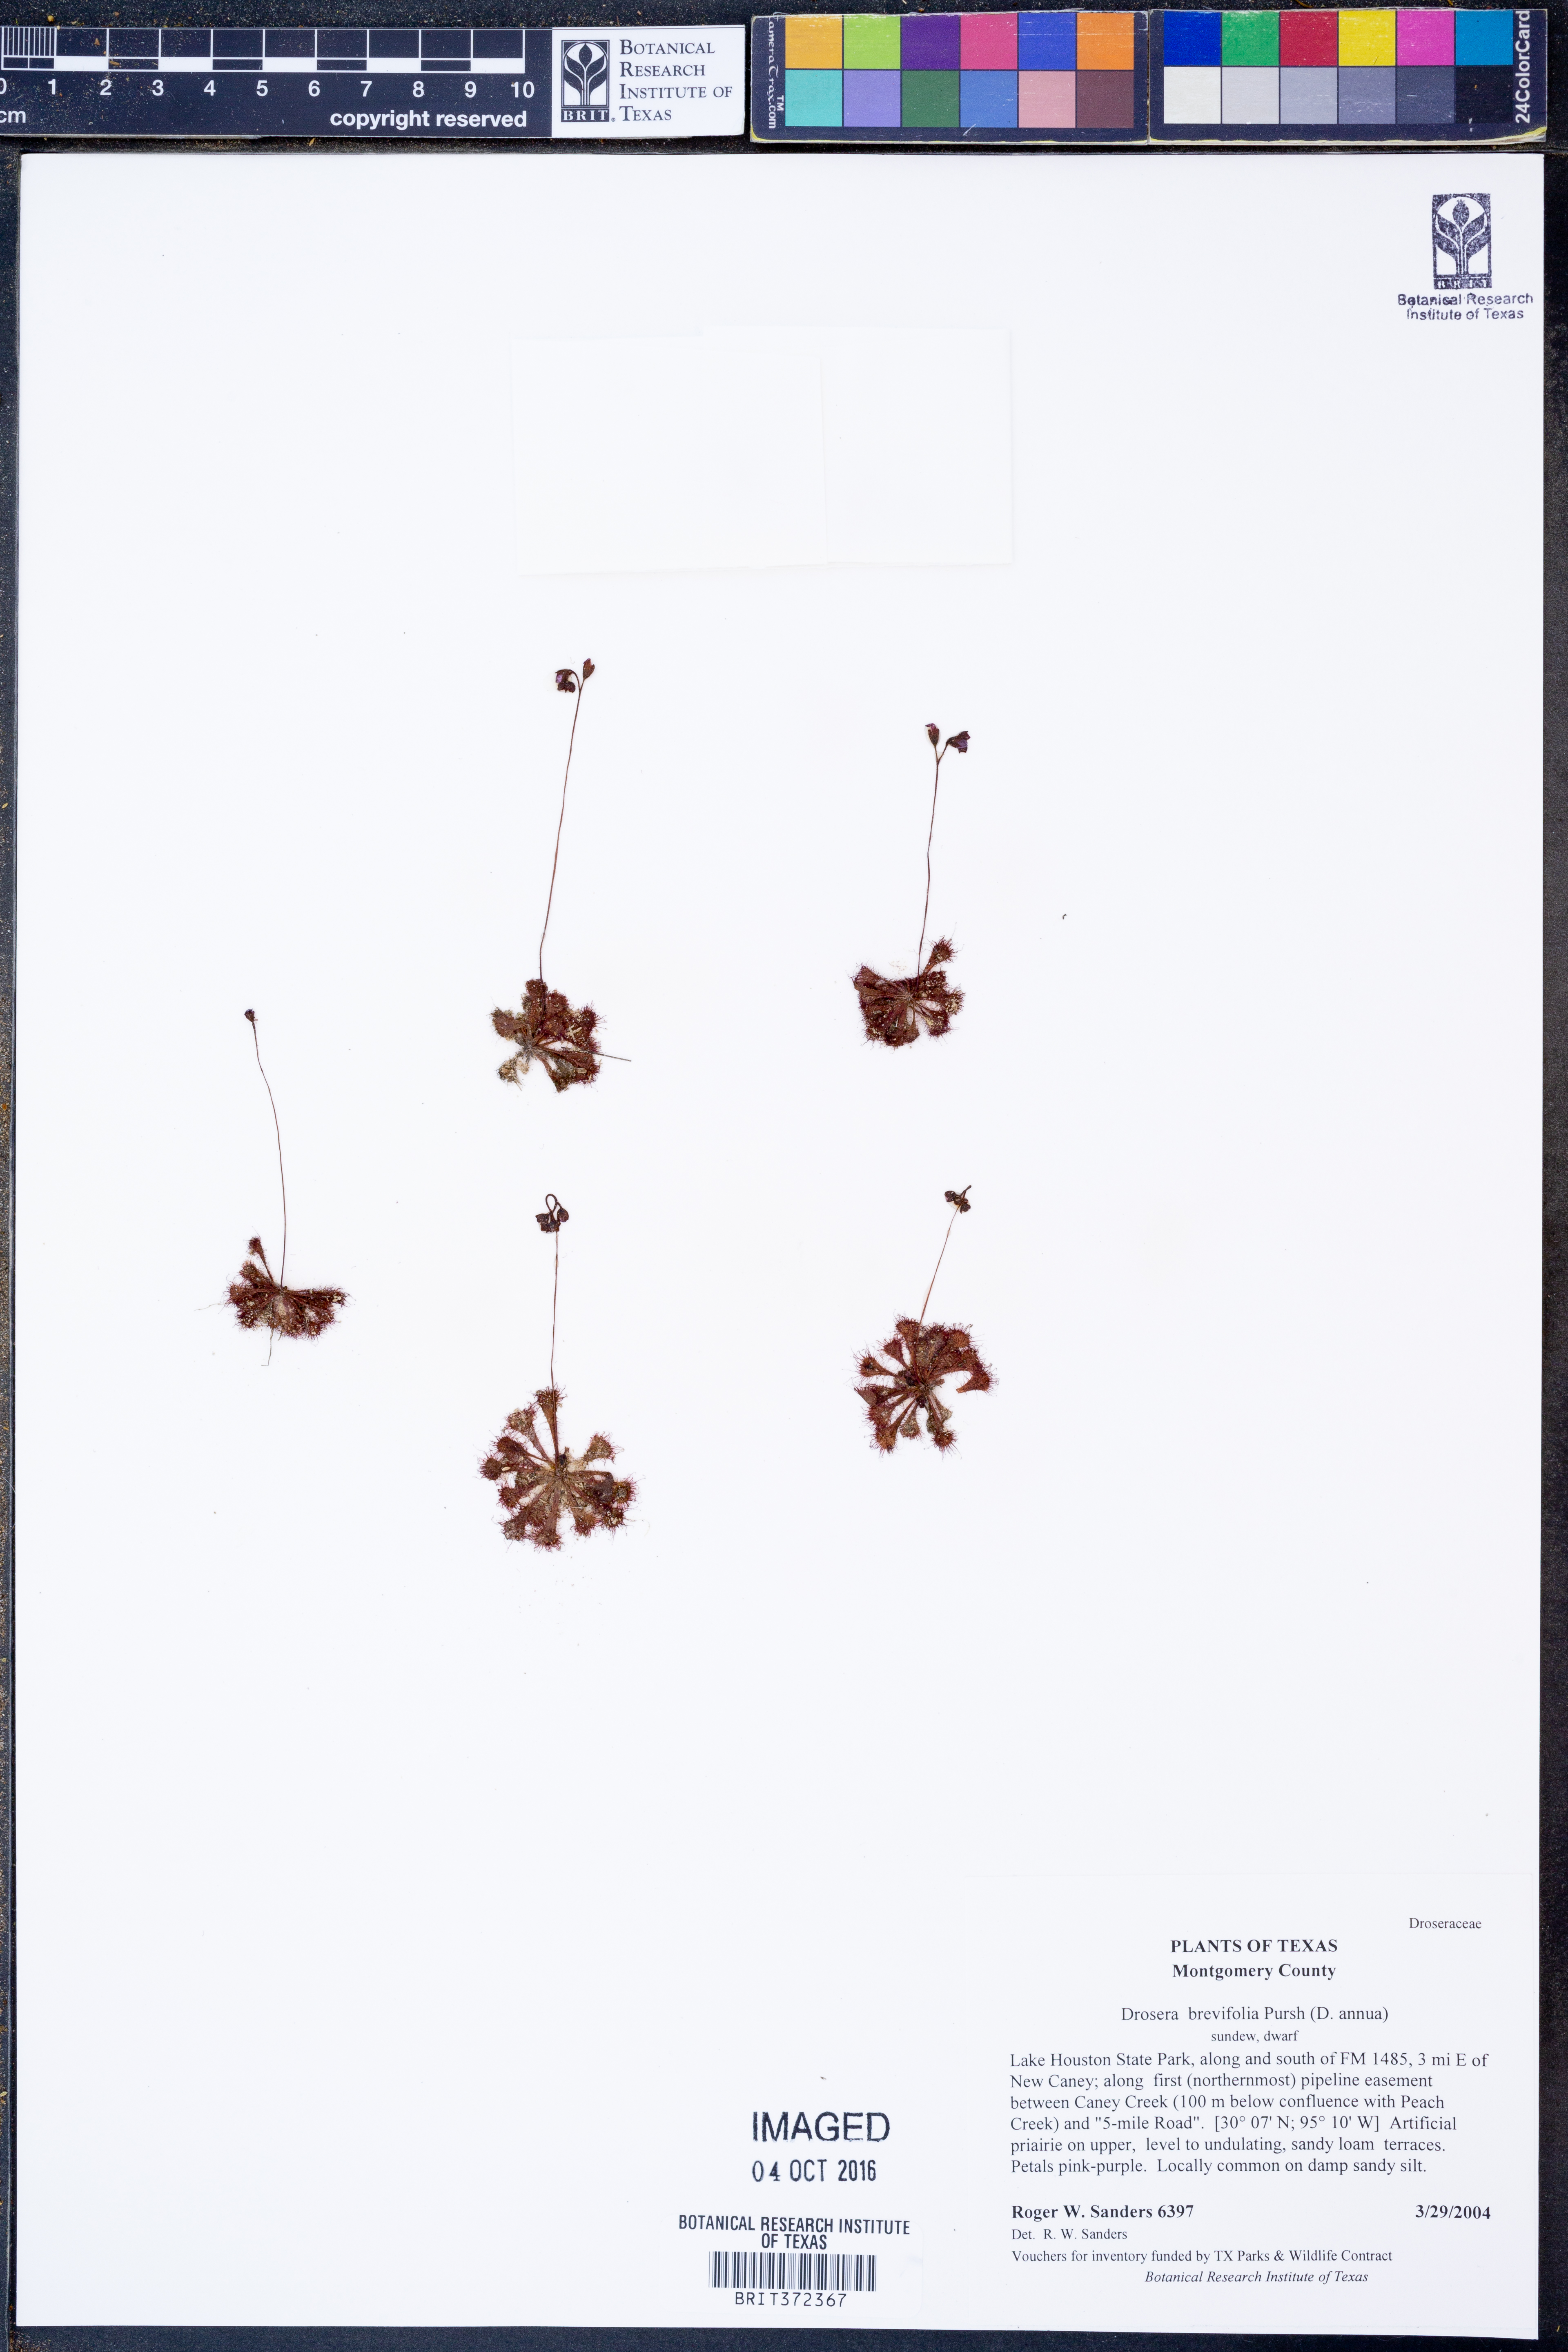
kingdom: Plantae
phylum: Tracheophyta
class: Magnoliopsida
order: Caryophyllales
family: Droseraceae
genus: Drosera
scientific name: Drosera brevifolia
